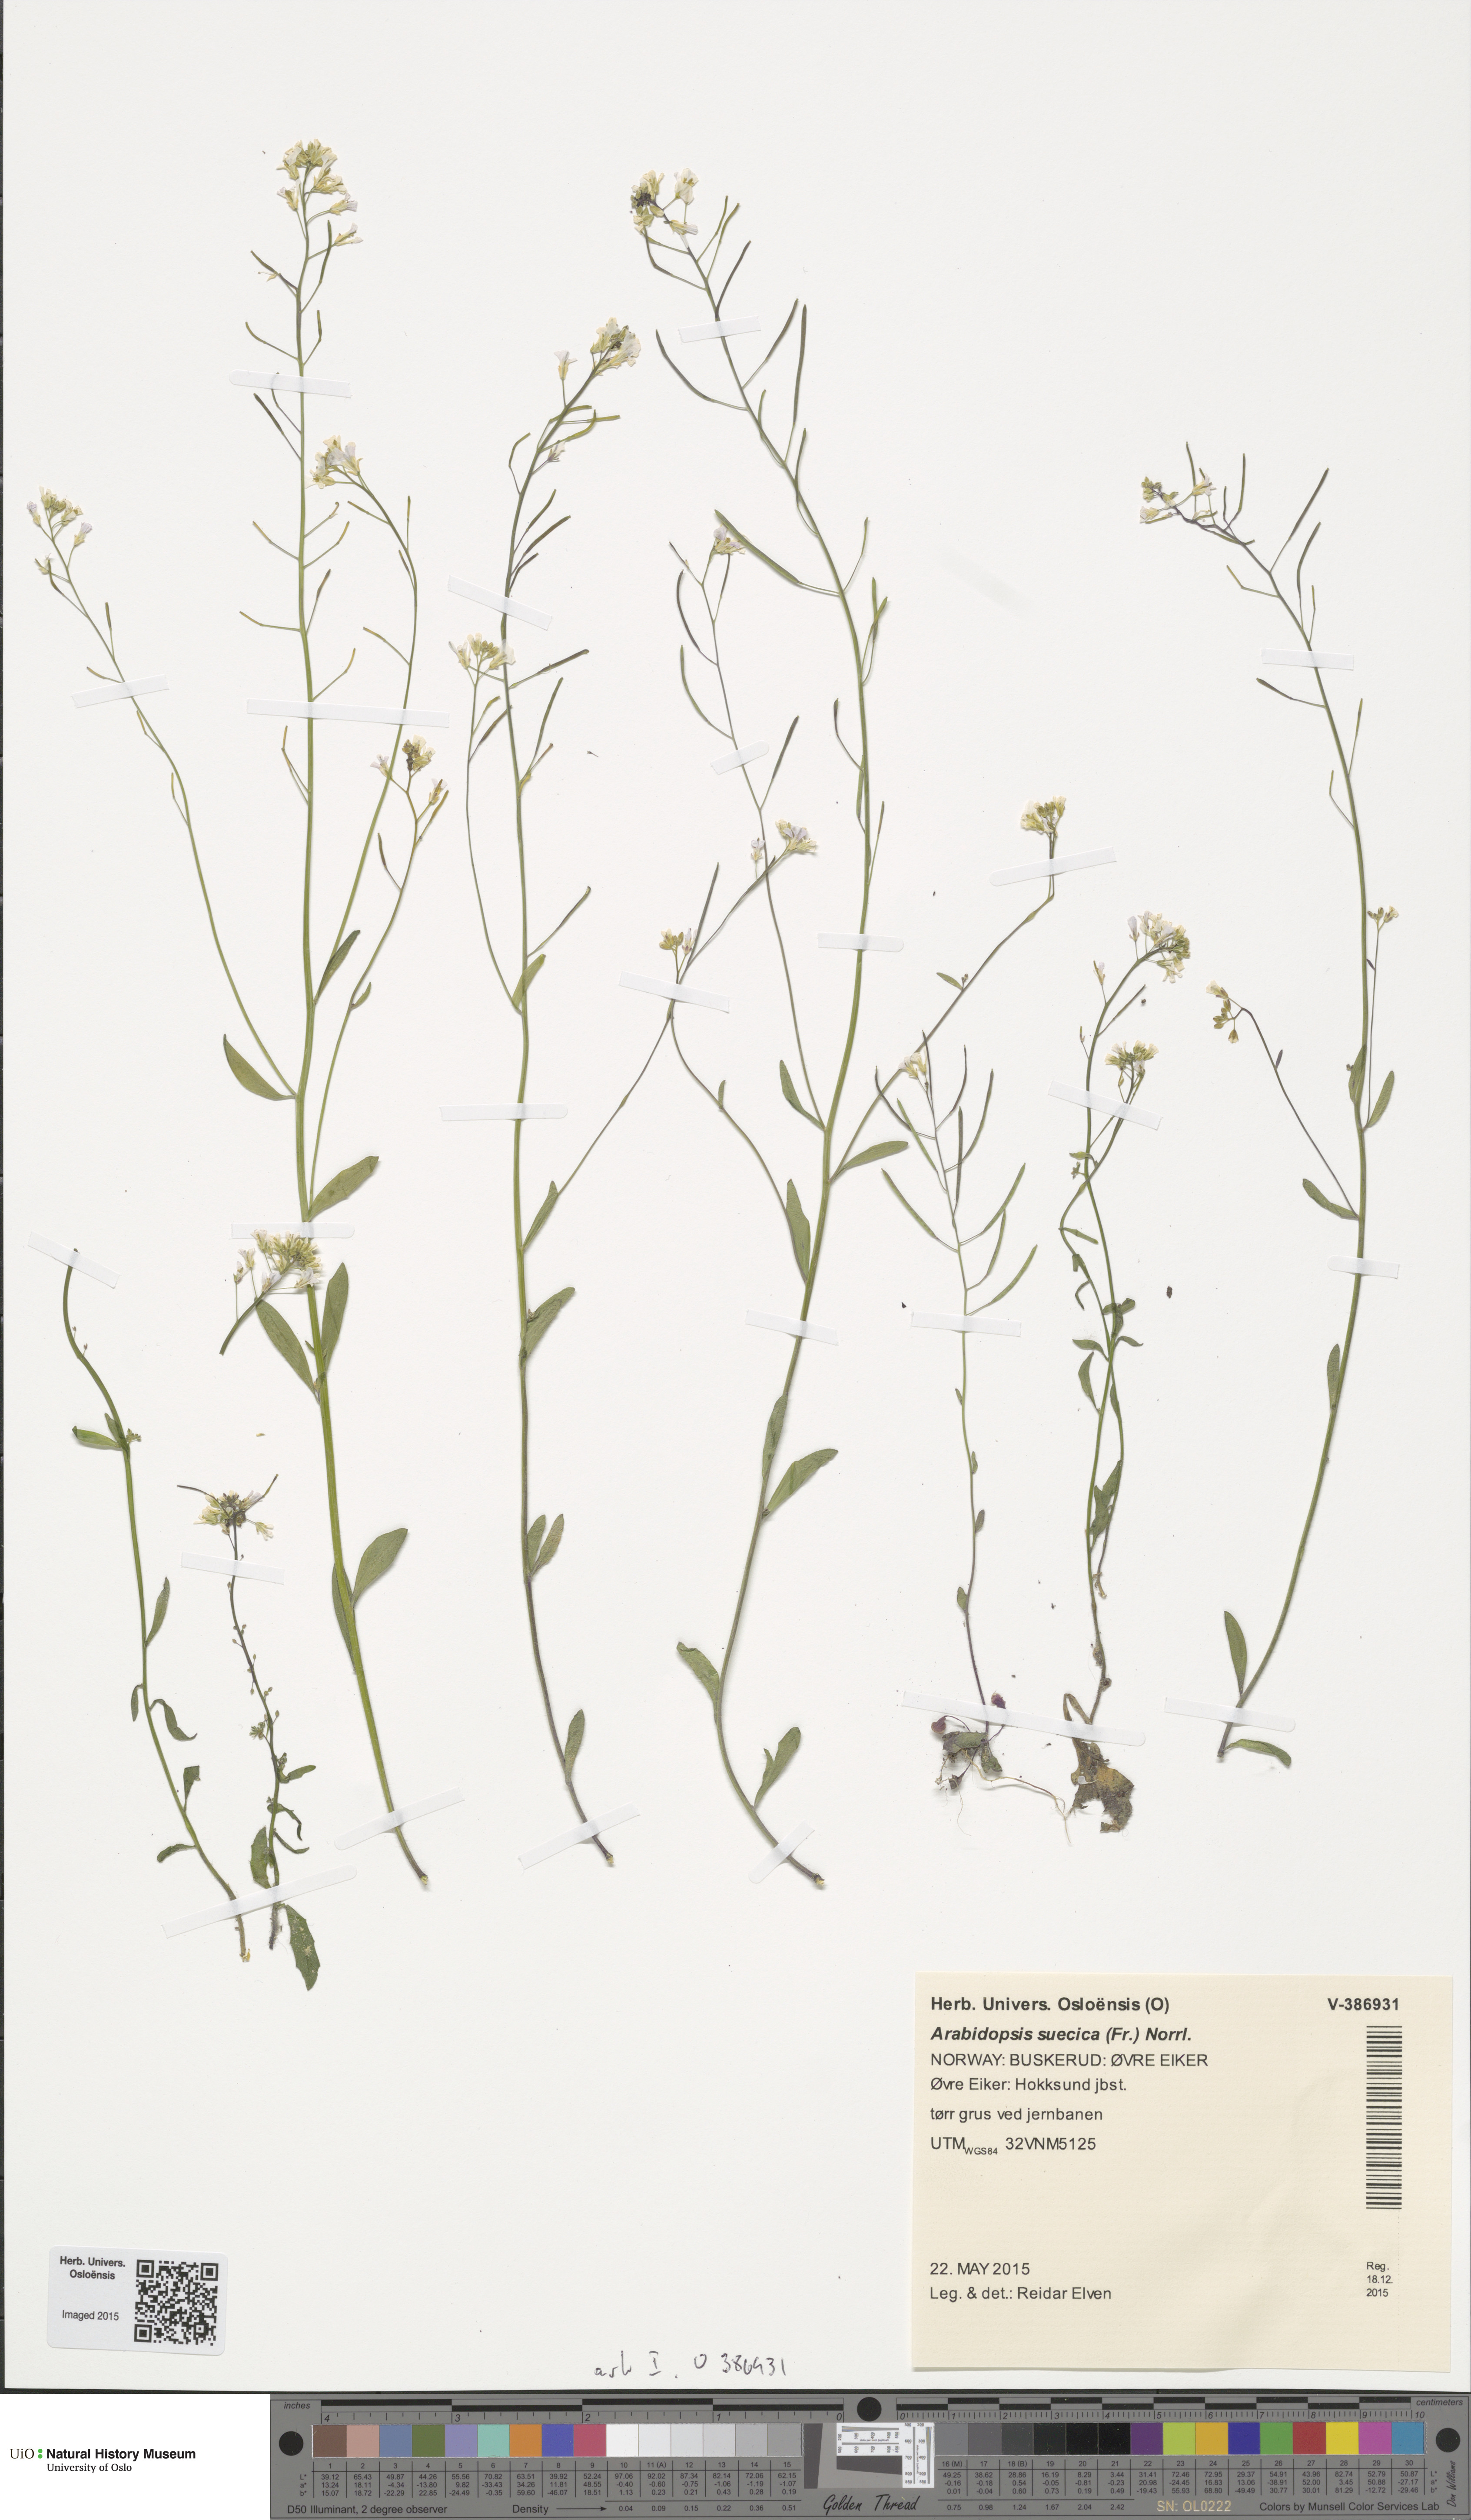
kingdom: Plantae
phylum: Tracheophyta
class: Magnoliopsida
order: Brassicales
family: Brassicaceae
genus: Arabidopsis
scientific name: Arabidopsis suecica
